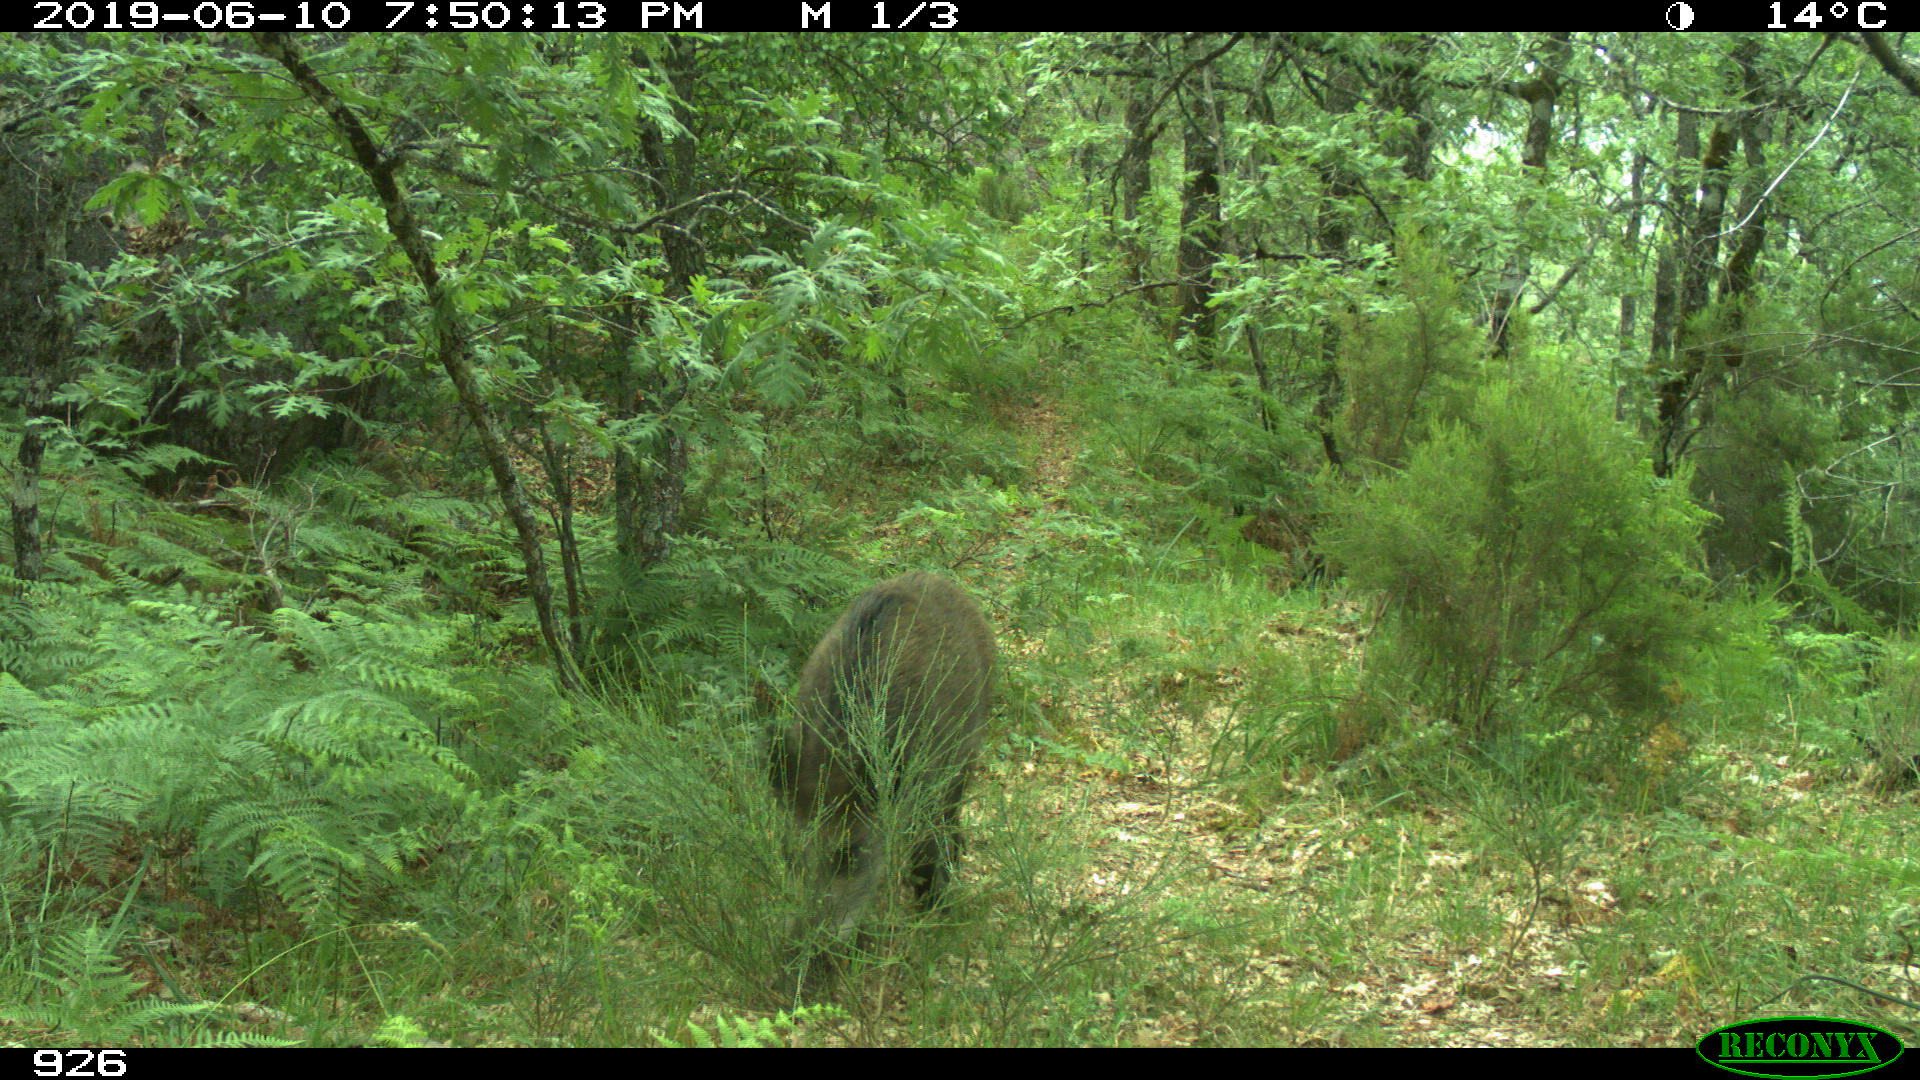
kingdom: Animalia
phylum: Chordata
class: Mammalia
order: Artiodactyla
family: Suidae
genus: Sus
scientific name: Sus scrofa
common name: Wild boar
